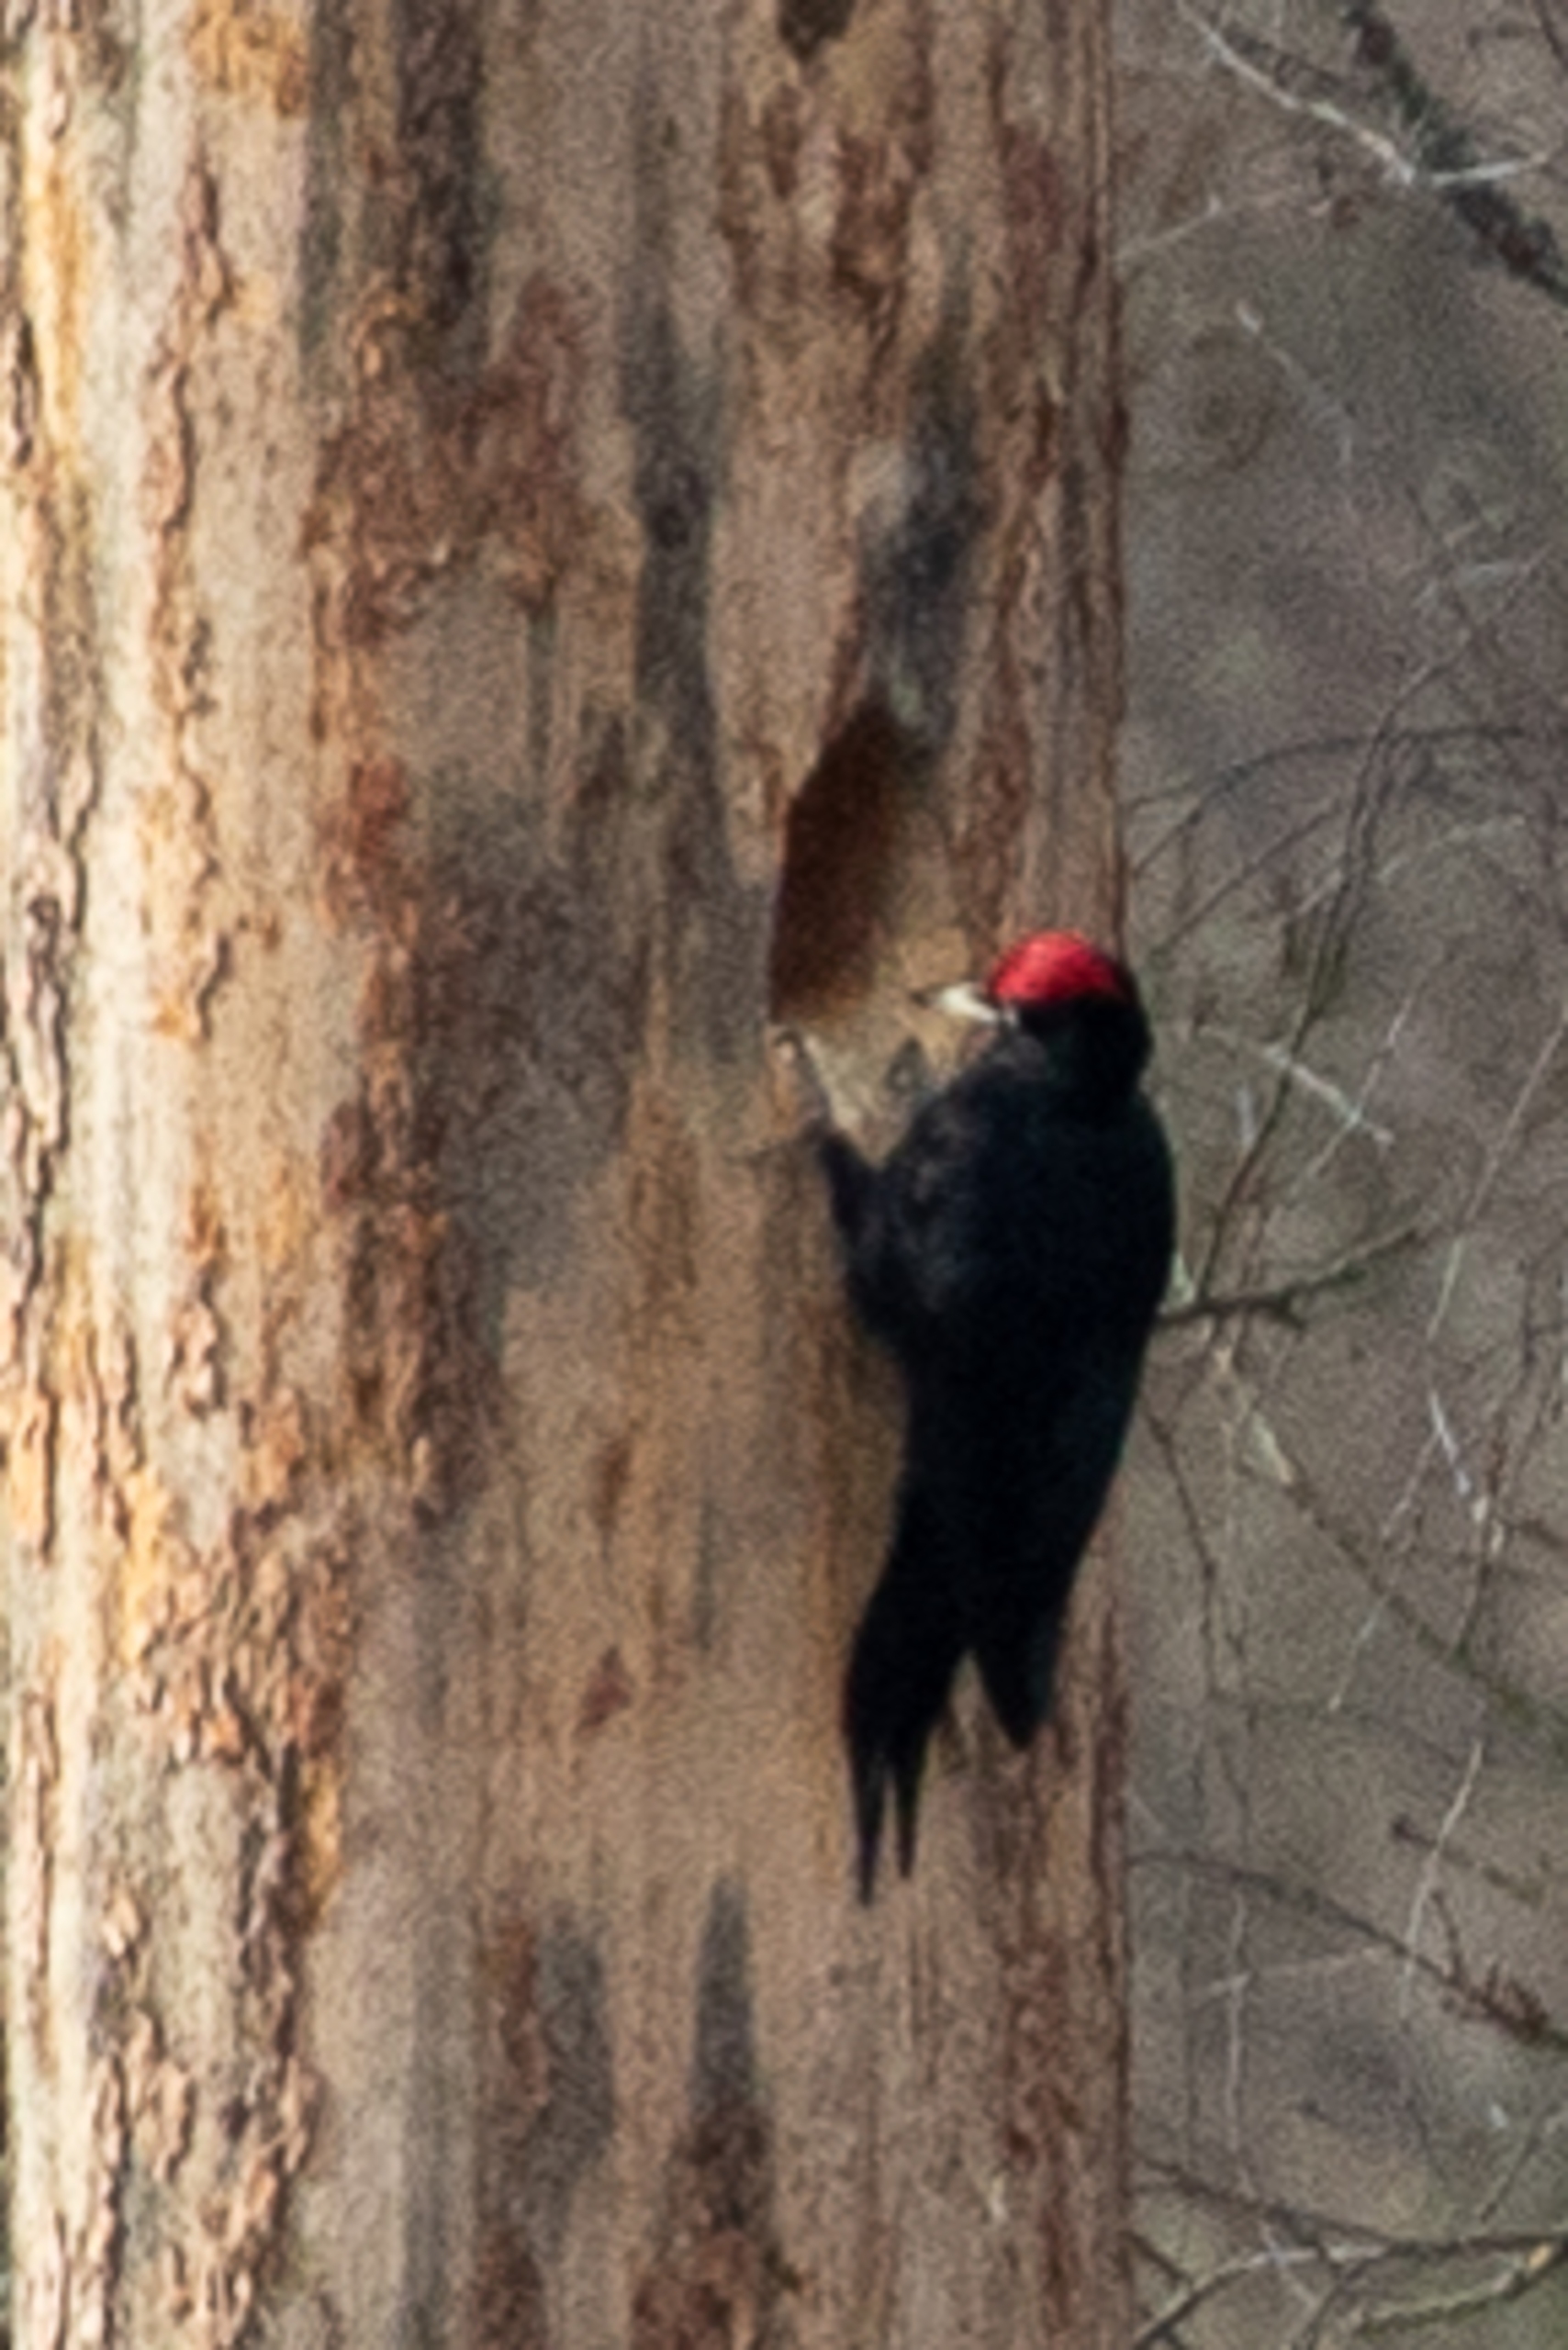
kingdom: Animalia
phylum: Chordata
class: Aves
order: Piciformes
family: Picidae
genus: Dryocopus
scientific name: Dryocopus martius
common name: Sortspætte
